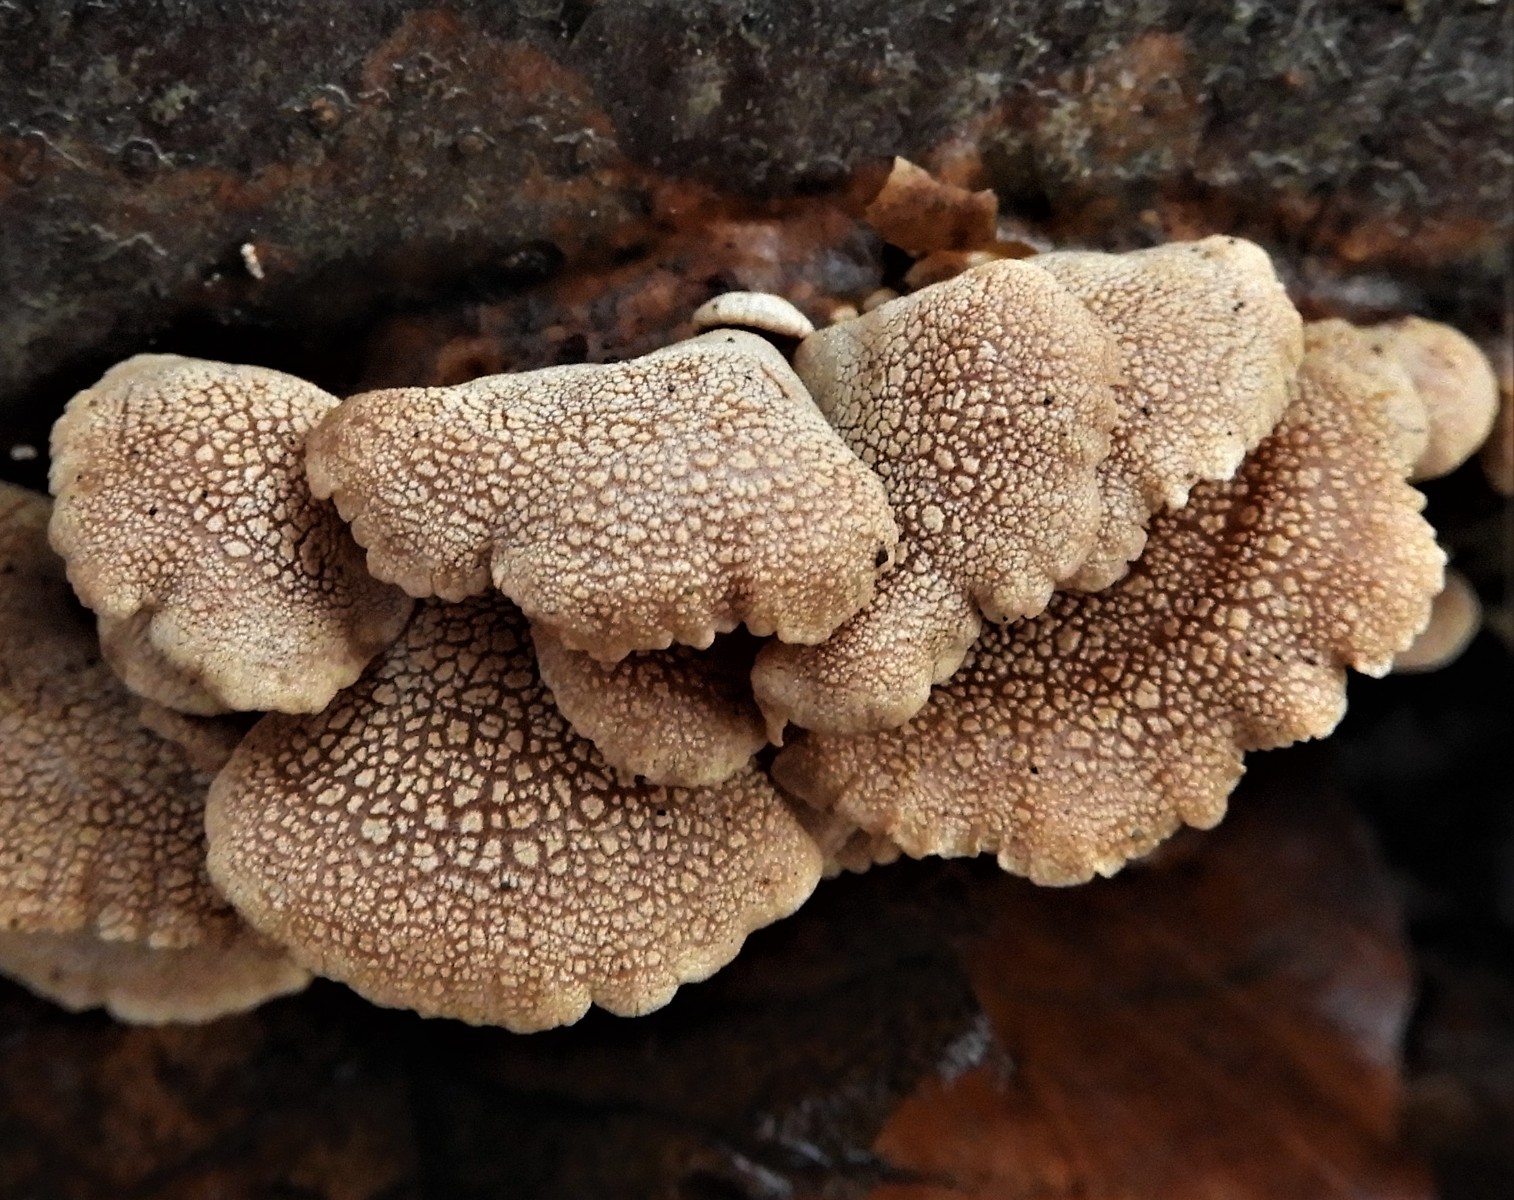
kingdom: Fungi
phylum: Basidiomycota
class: Agaricomycetes
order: Agaricales
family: Mycenaceae
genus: Panellus
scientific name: Panellus stipticus
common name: kliddet epaulethat
